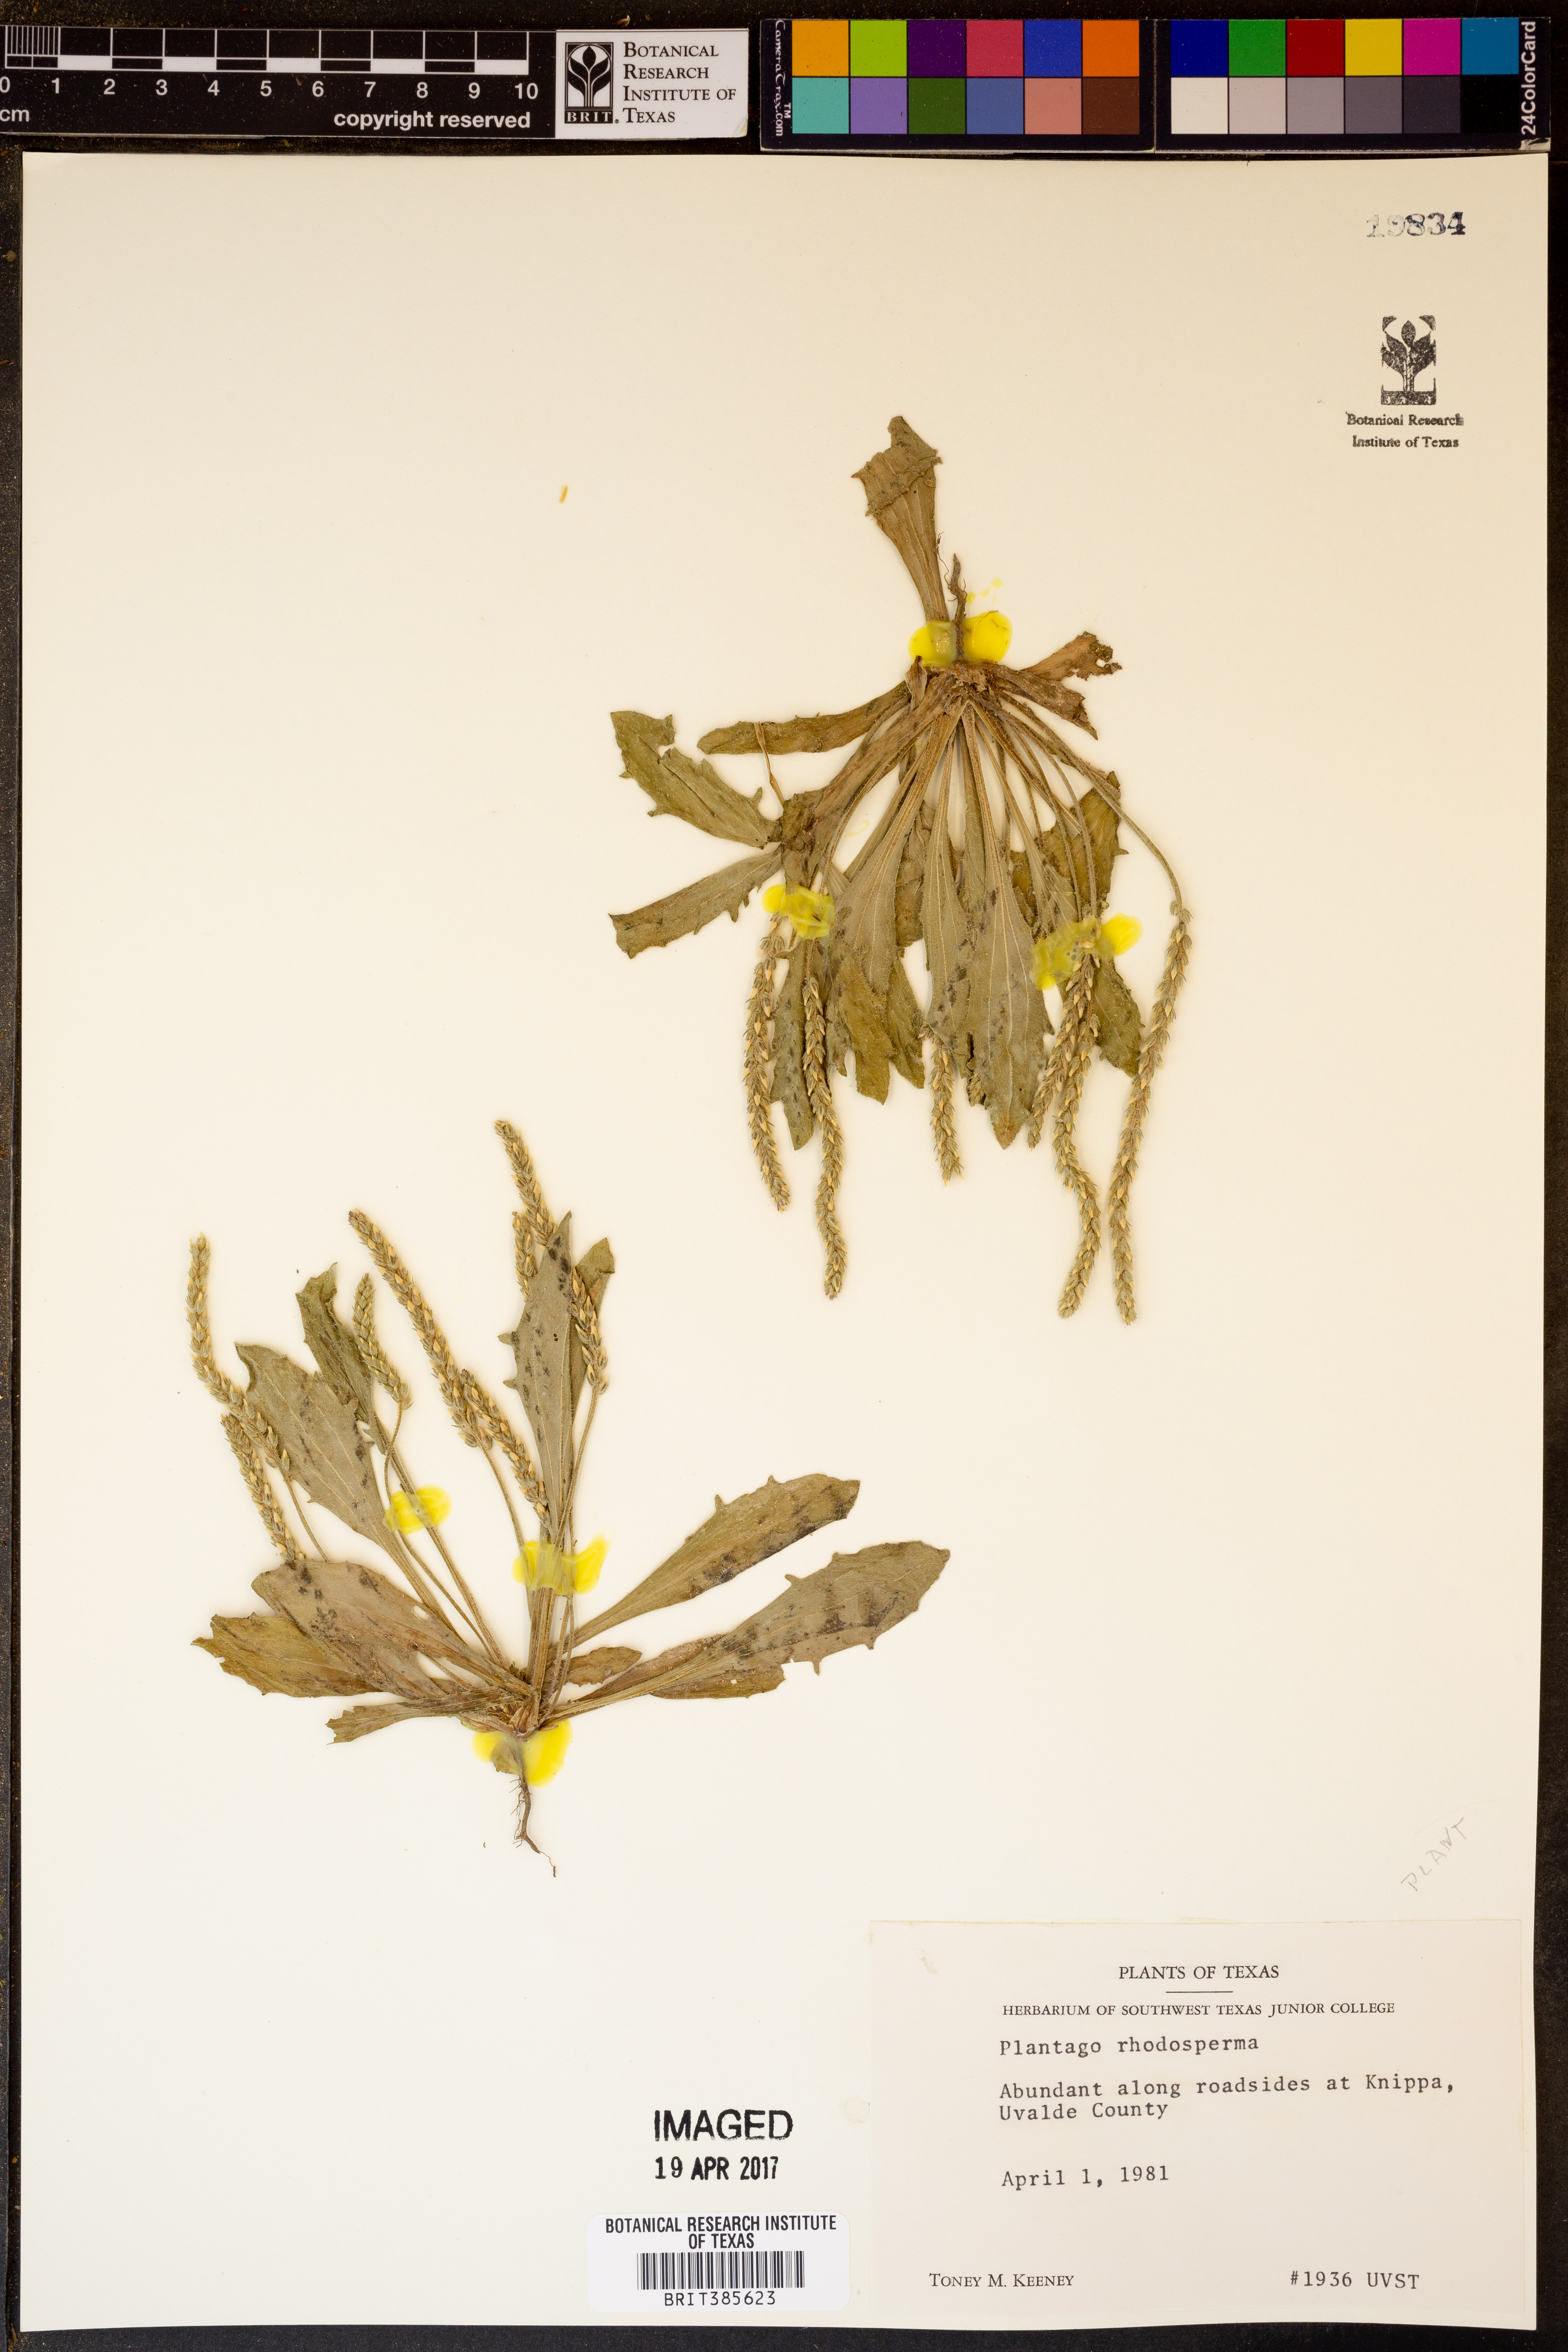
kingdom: Plantae
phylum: Tracheophyta
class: Magnoliopsida
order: Lamiales
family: Plantaginaceae
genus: Plantago
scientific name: Plantago rhodosperma
